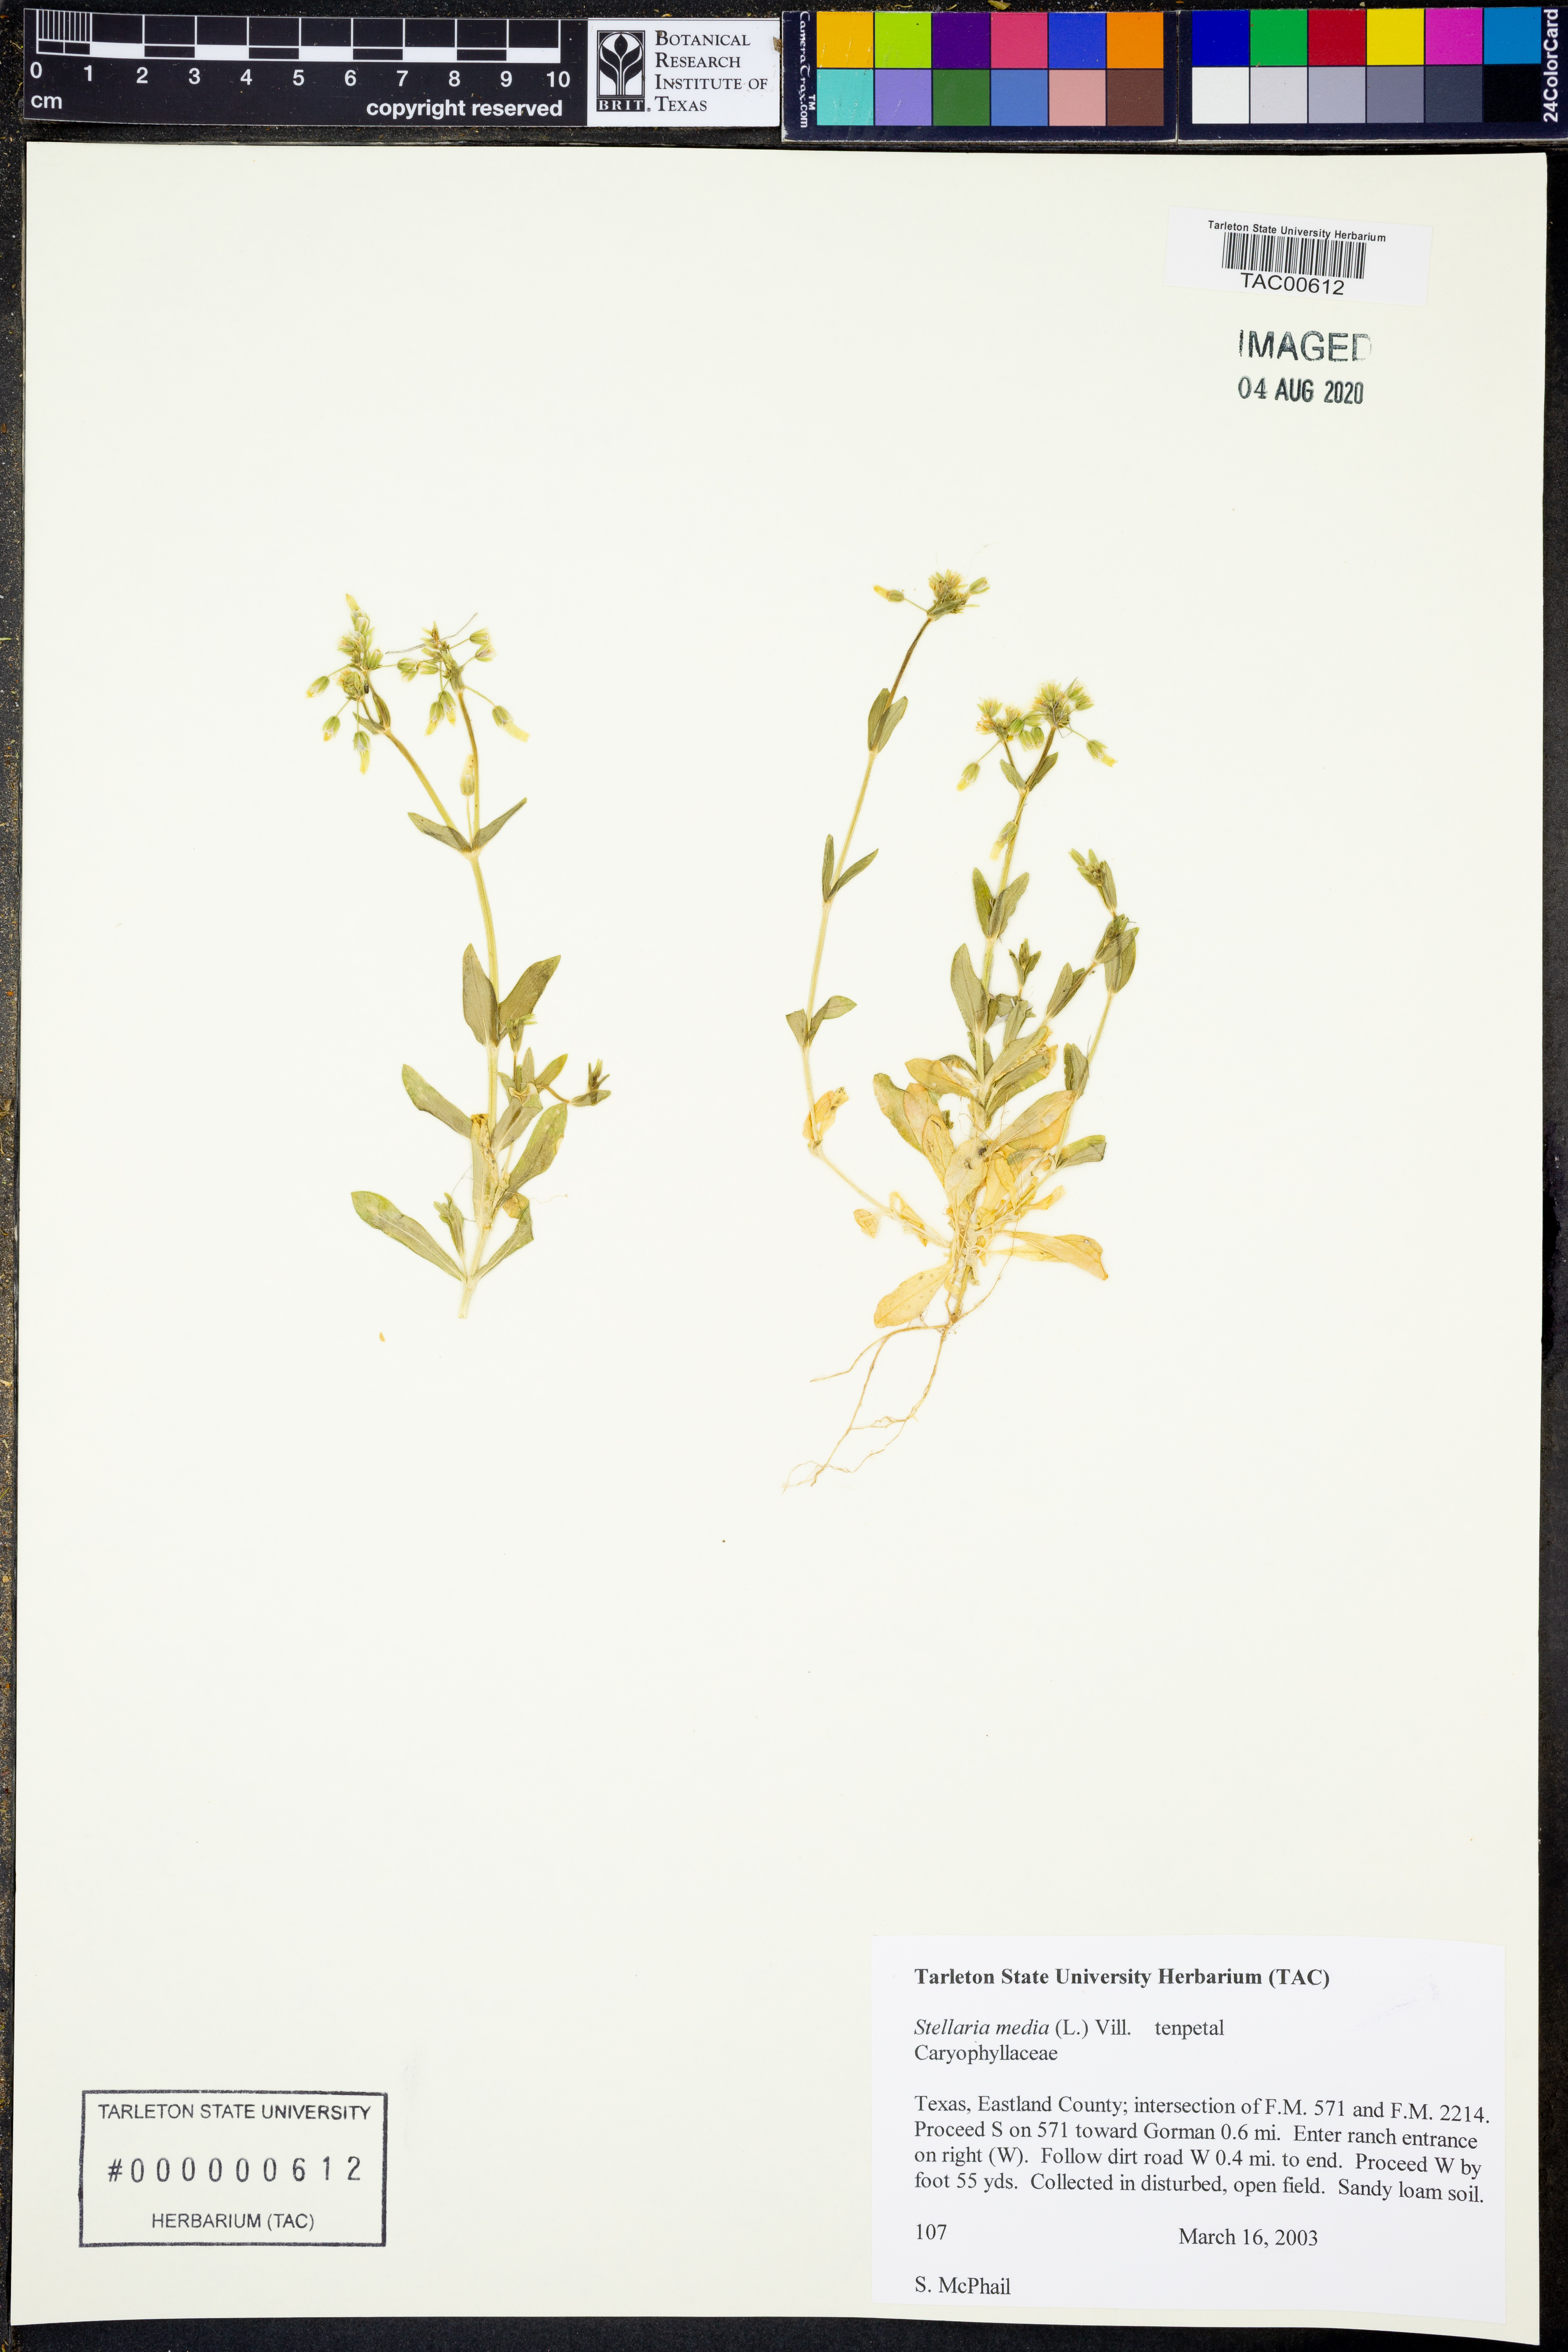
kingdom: Plantae
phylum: Tracheophyta
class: Magnoliopsida
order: Caryophyllales
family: Caryophyllaceae
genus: Stellaria
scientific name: Stellaria media
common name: Common chickweed
